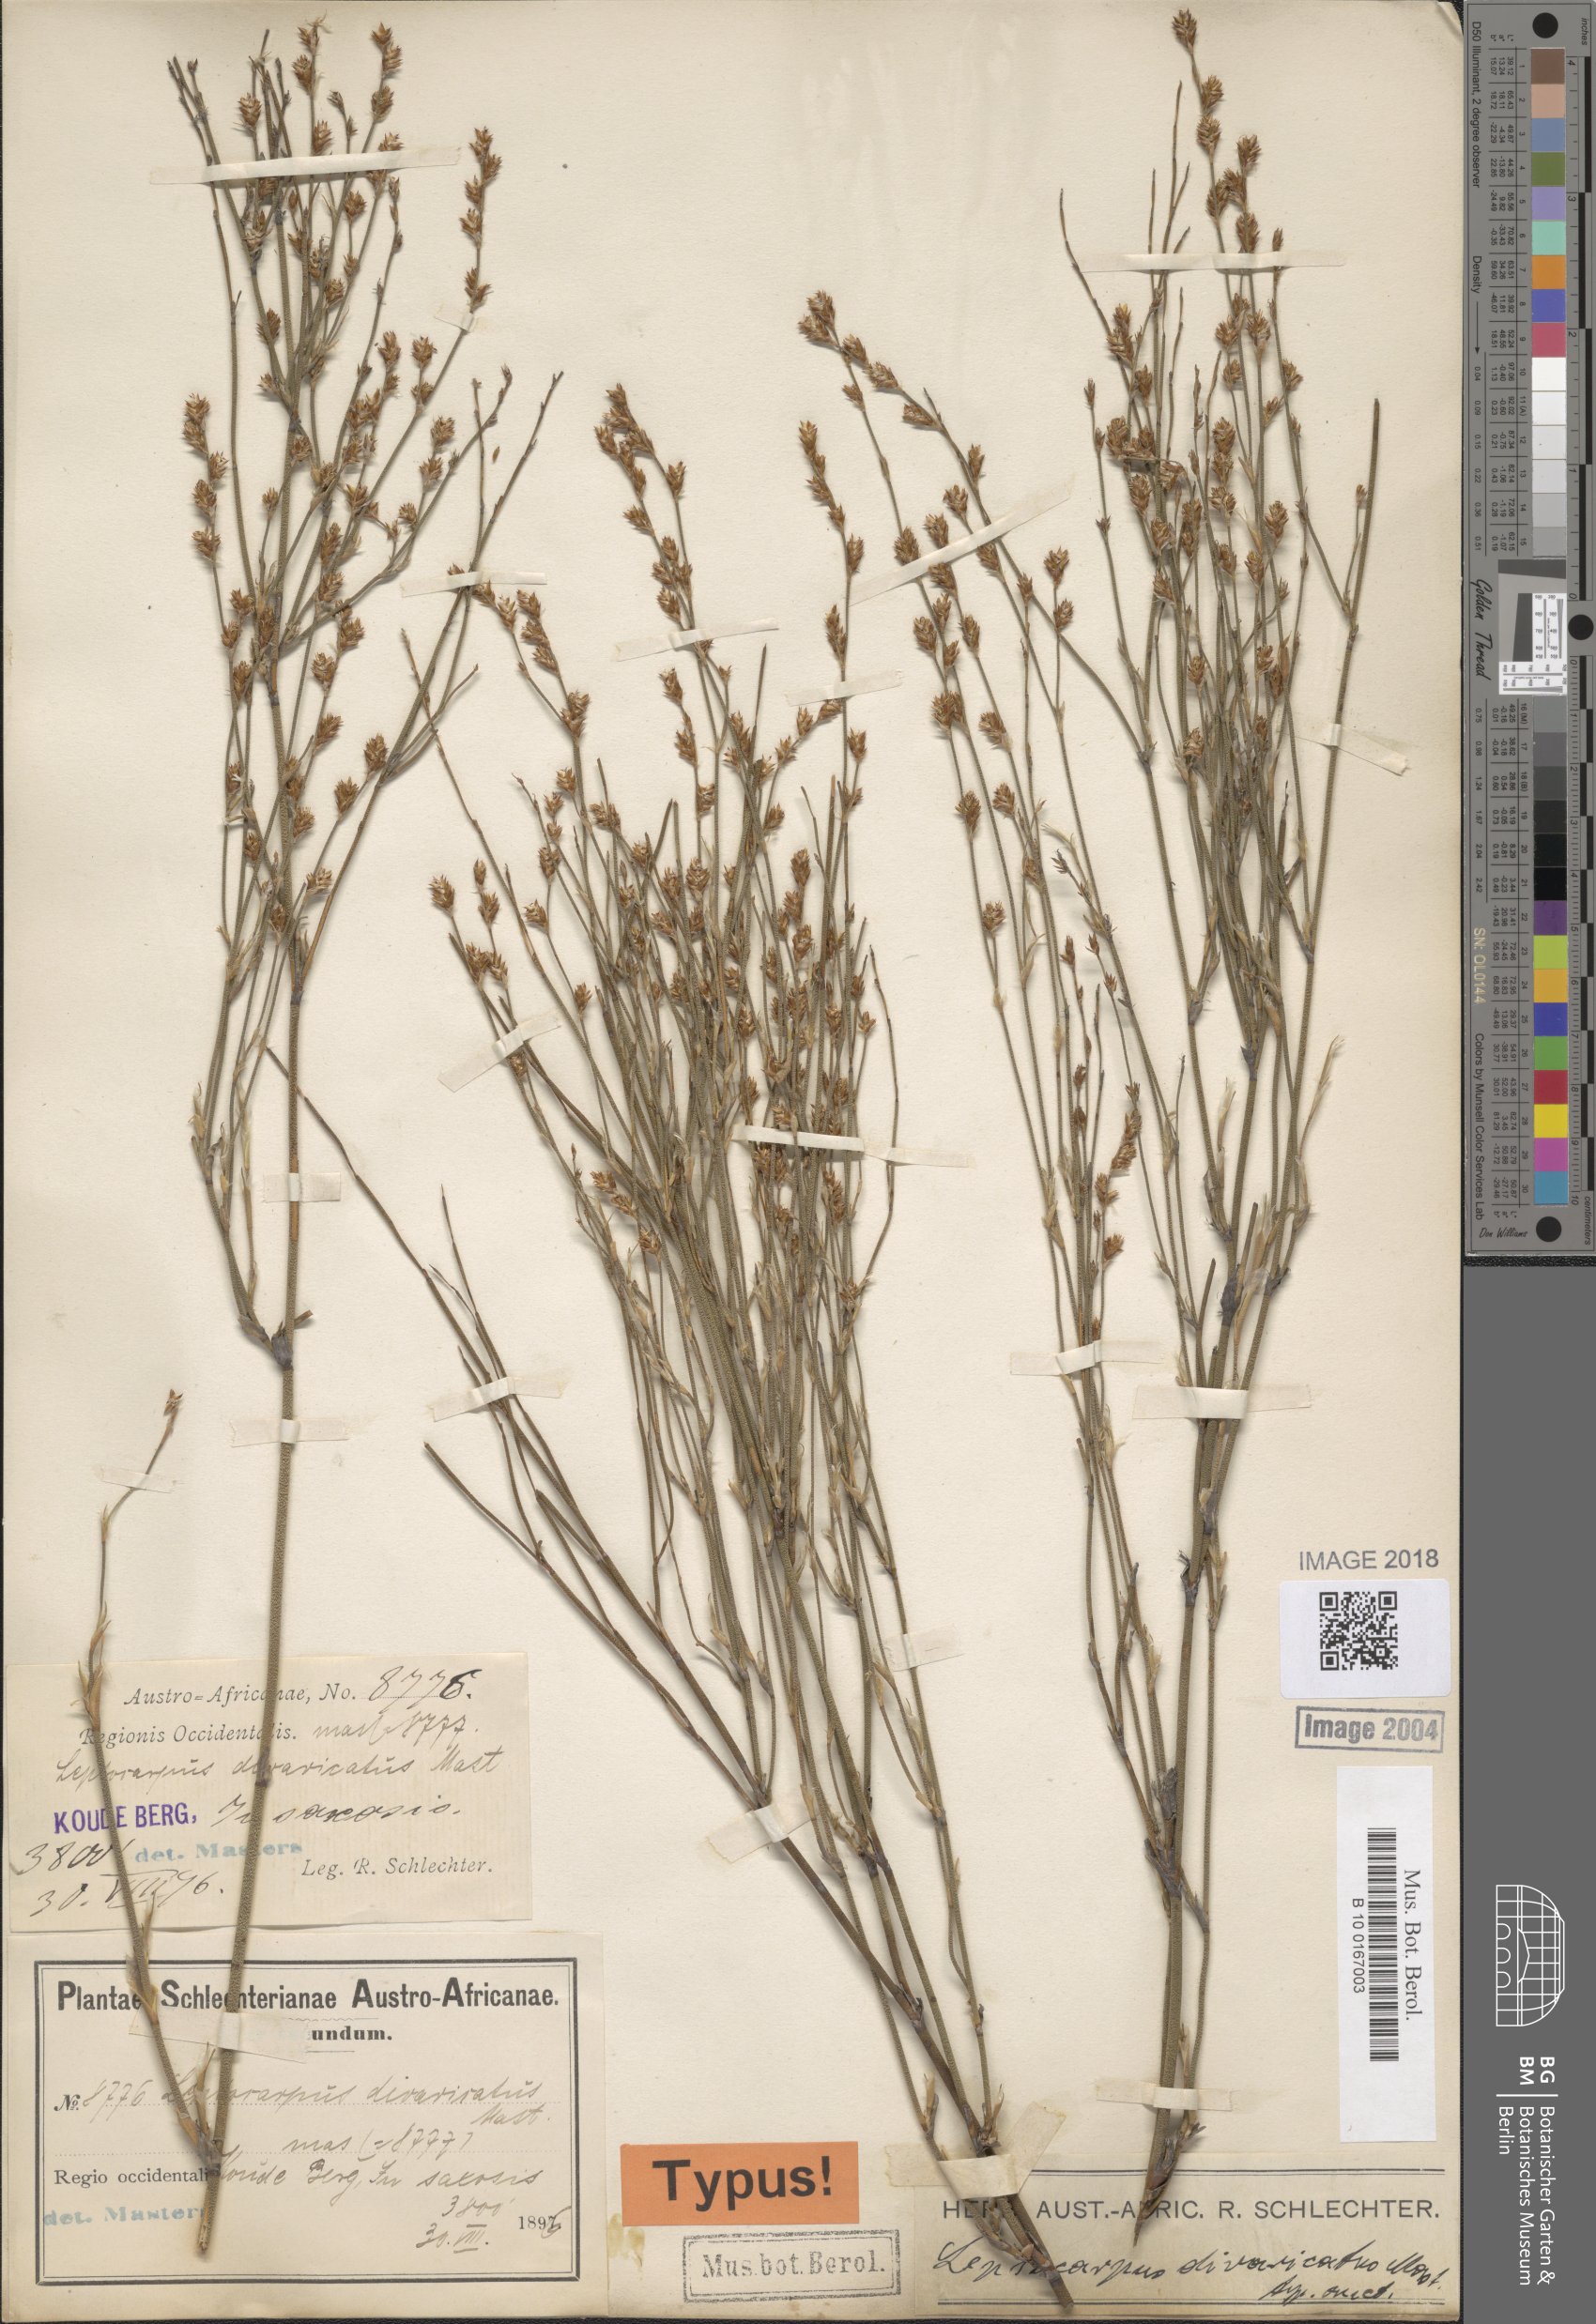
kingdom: Plantae
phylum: Tracheophyta
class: Liliopsida
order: Poales
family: Restionaceae
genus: Restio
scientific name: Restio tuberculatus
